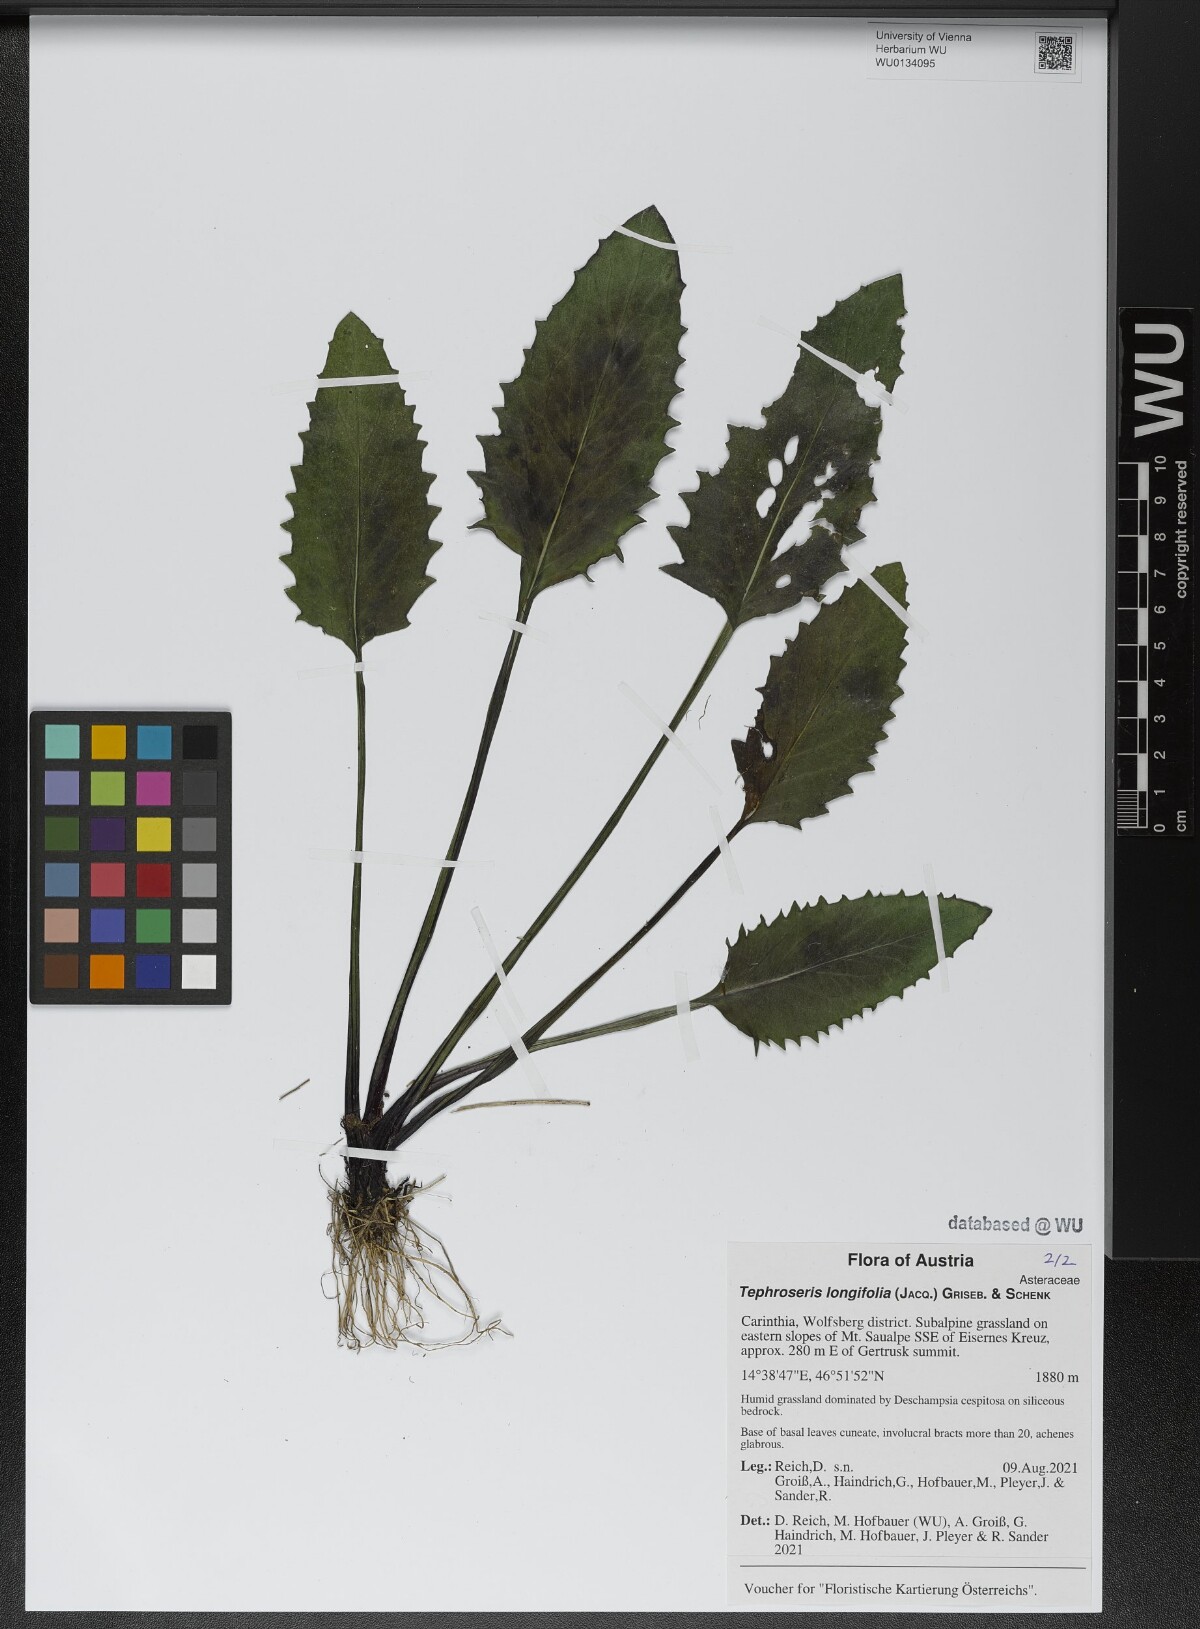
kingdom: Plantae
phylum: Tracheophyta
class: Magnoliopsida
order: Asterales
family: Asteraceae
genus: Tephroseris
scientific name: Tephroseris longifolia
